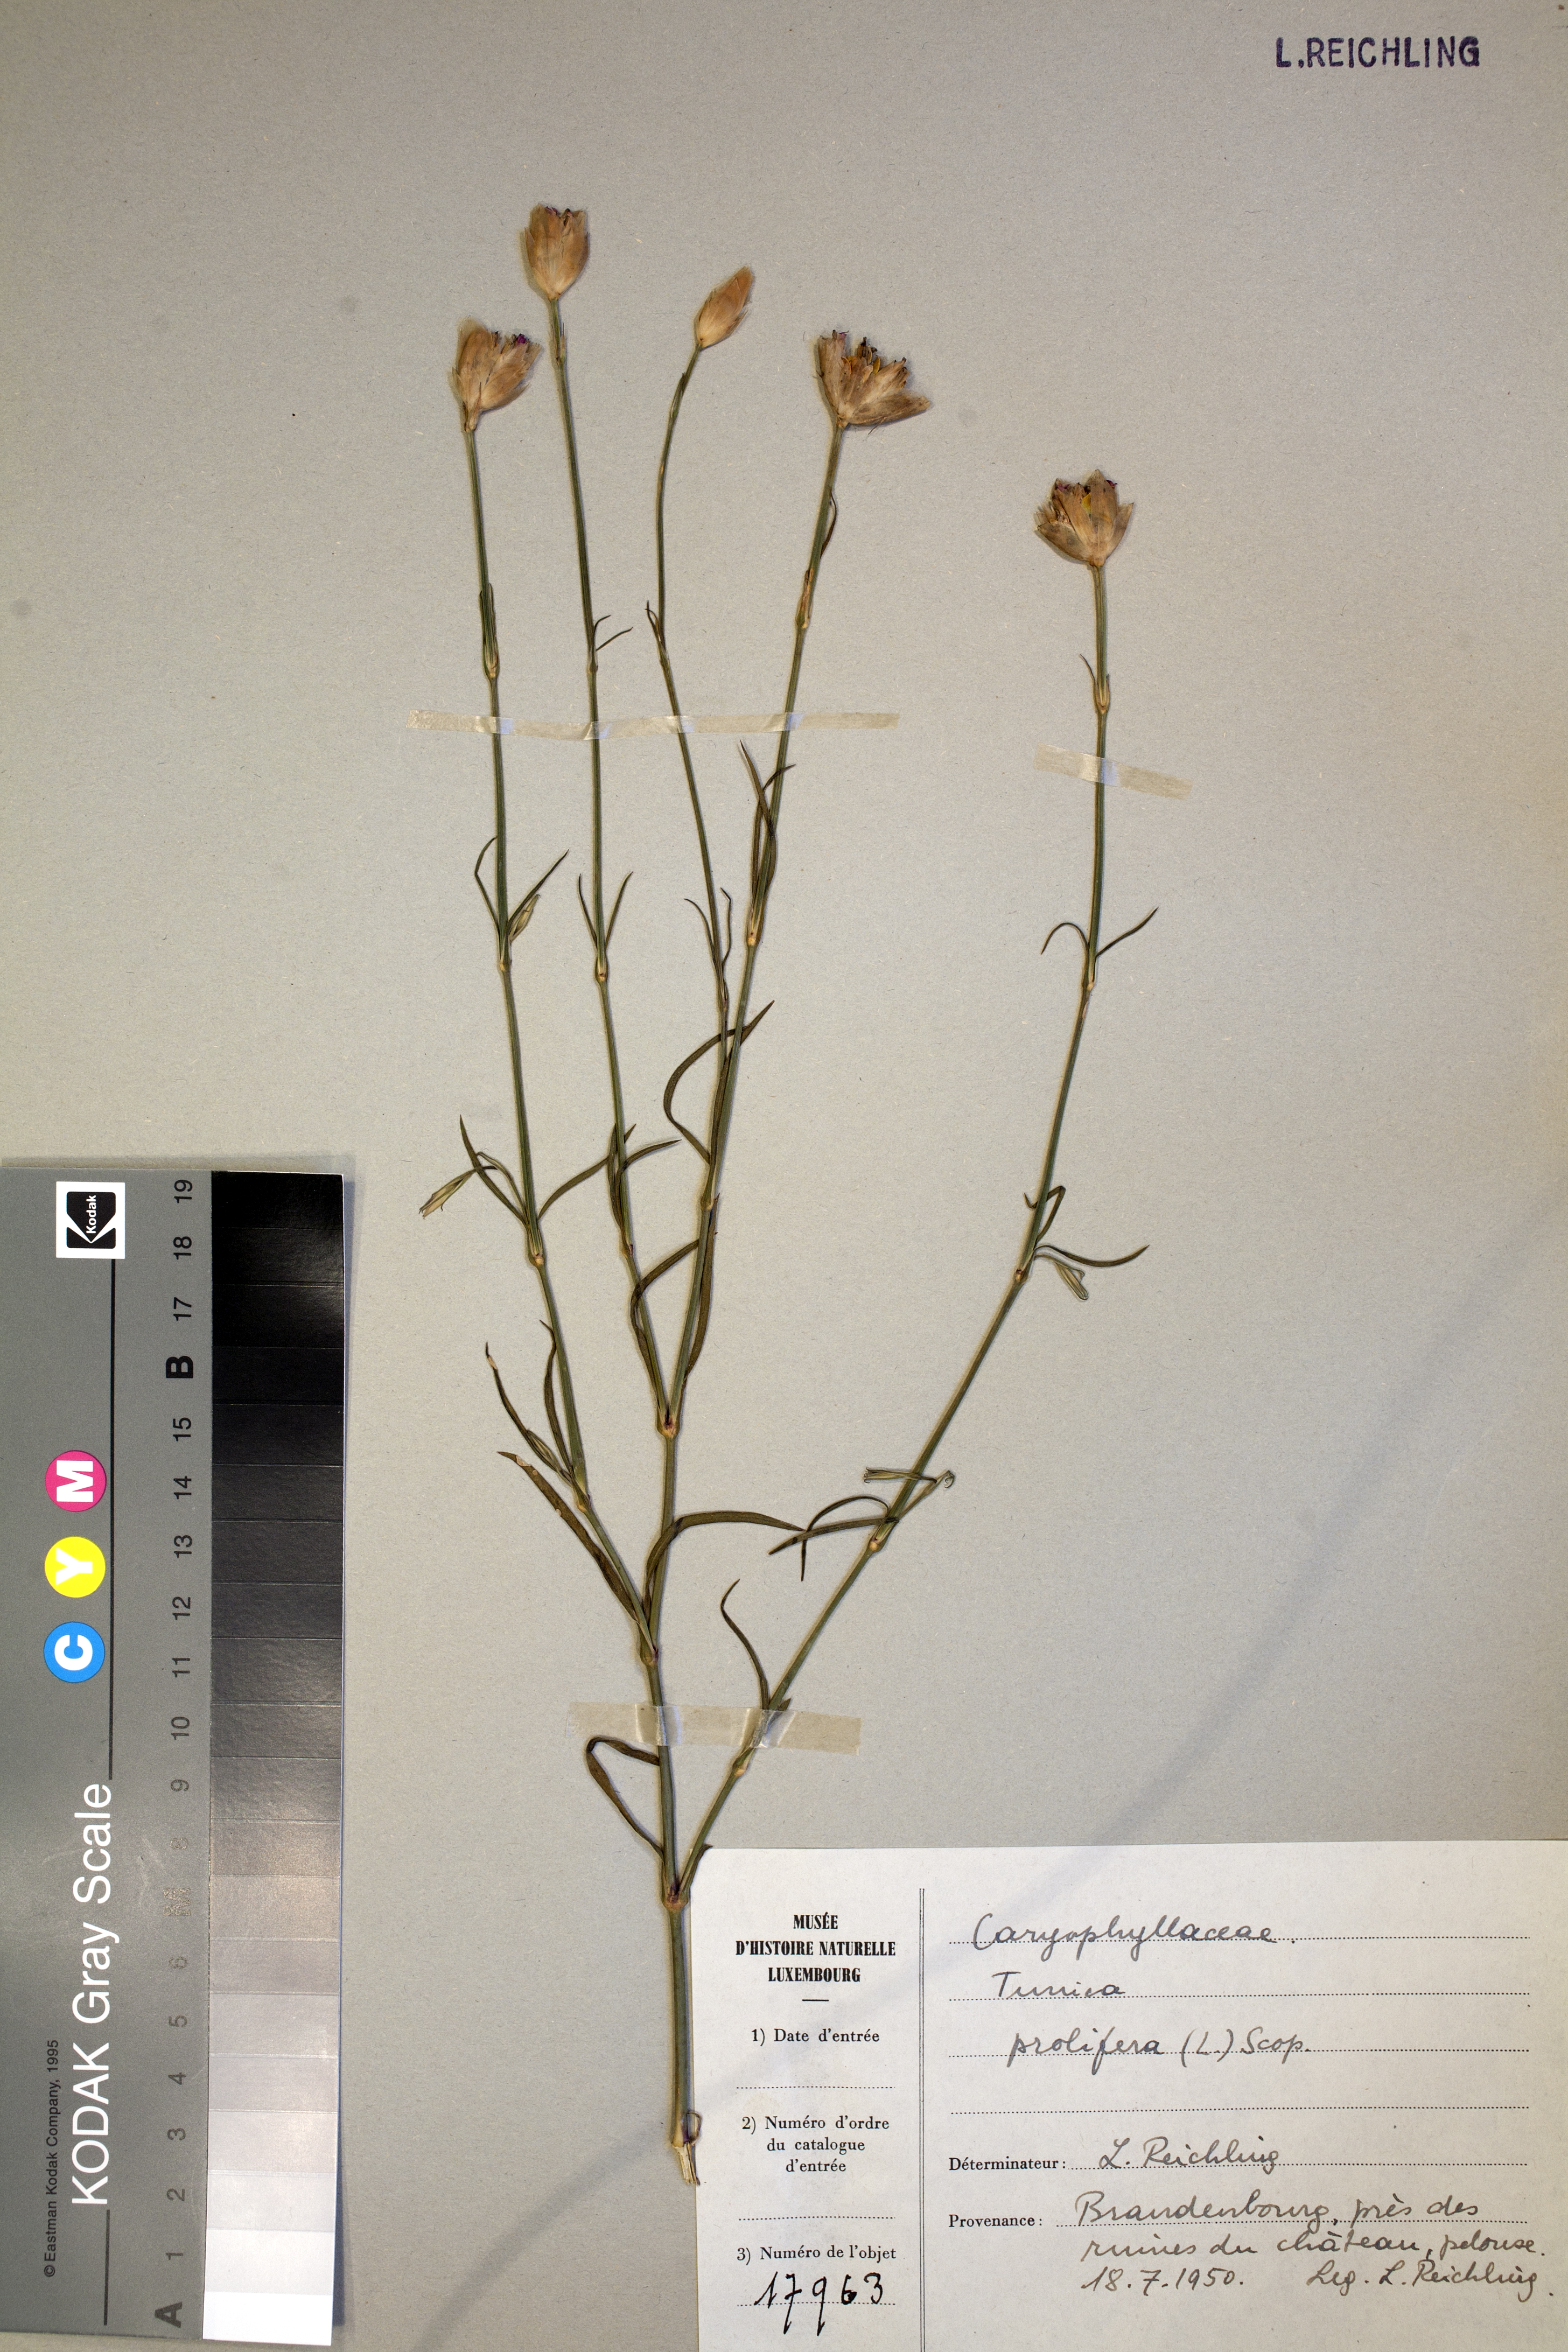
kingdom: Plantae
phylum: Tracheophyta
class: Magnoliopsida
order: Caryophyllales
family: Caryophyllaceae
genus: Petrorhagia
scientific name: Petrorhagia prolifera
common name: Proliferous pink
